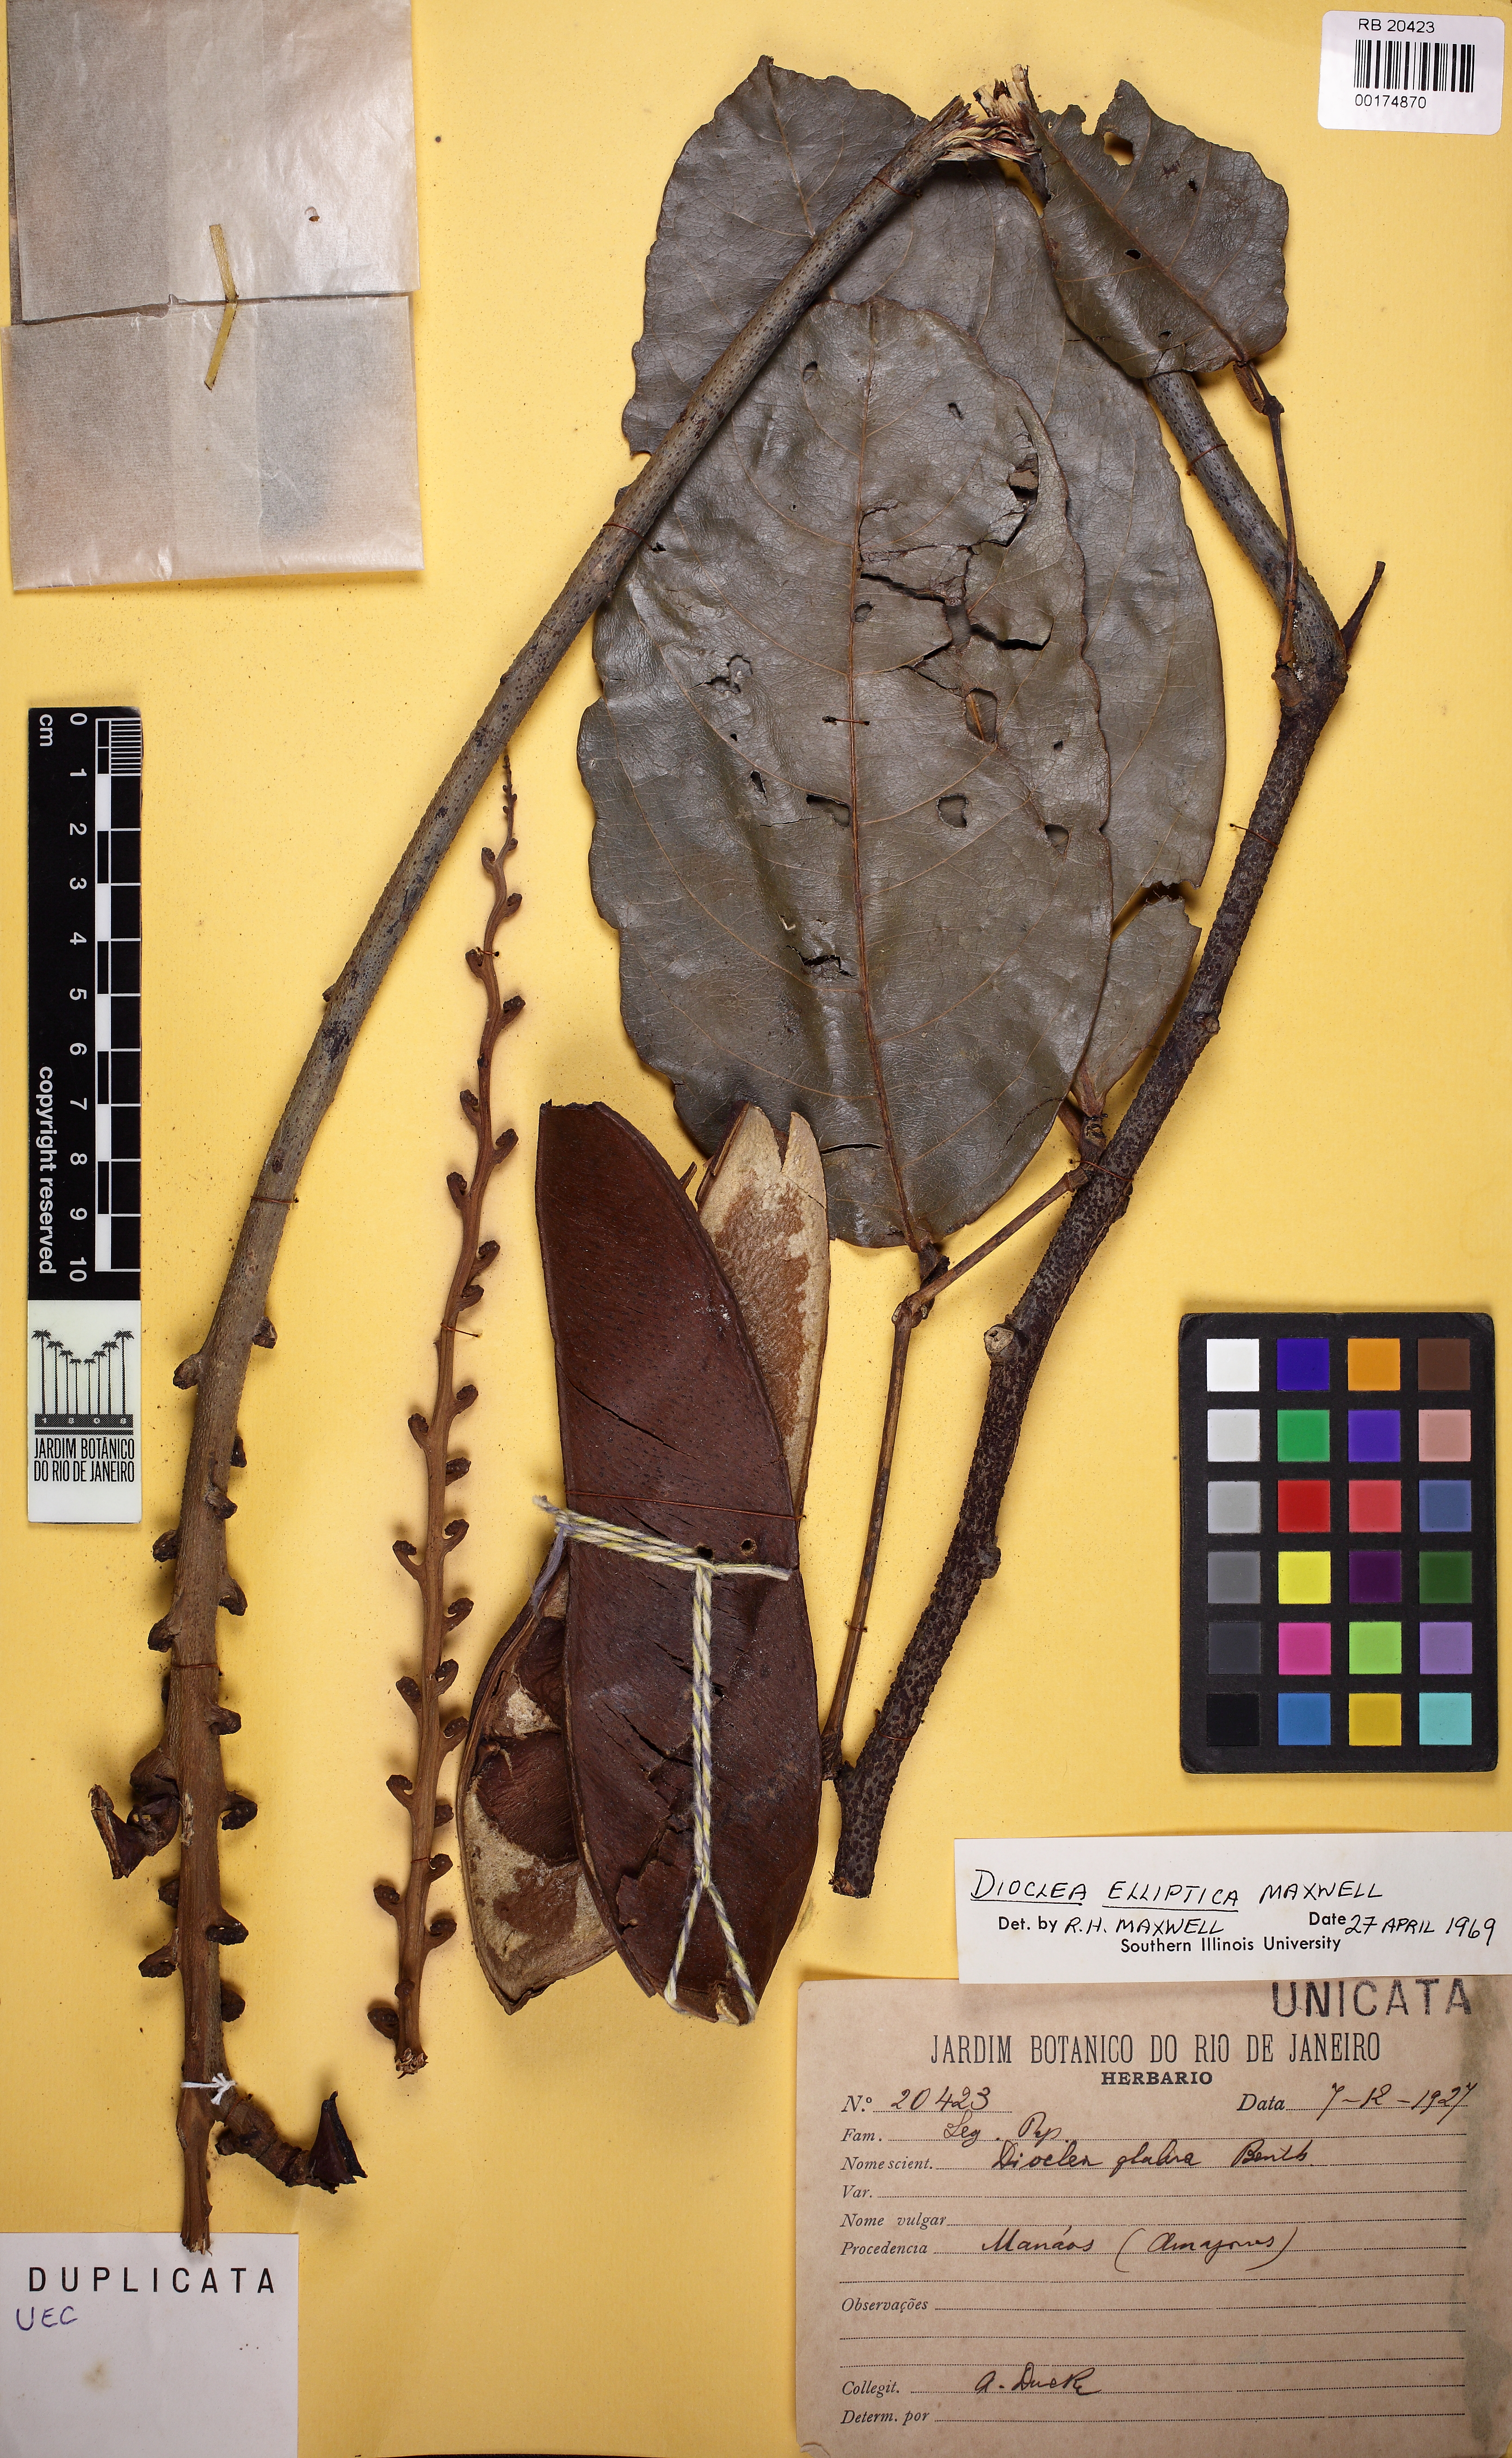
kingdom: Plantae
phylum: Tracheophyta
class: Magnoliopsida
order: Fabales
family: Fabaceae
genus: Macropsychanthus
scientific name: Macropsychanthus scaber
